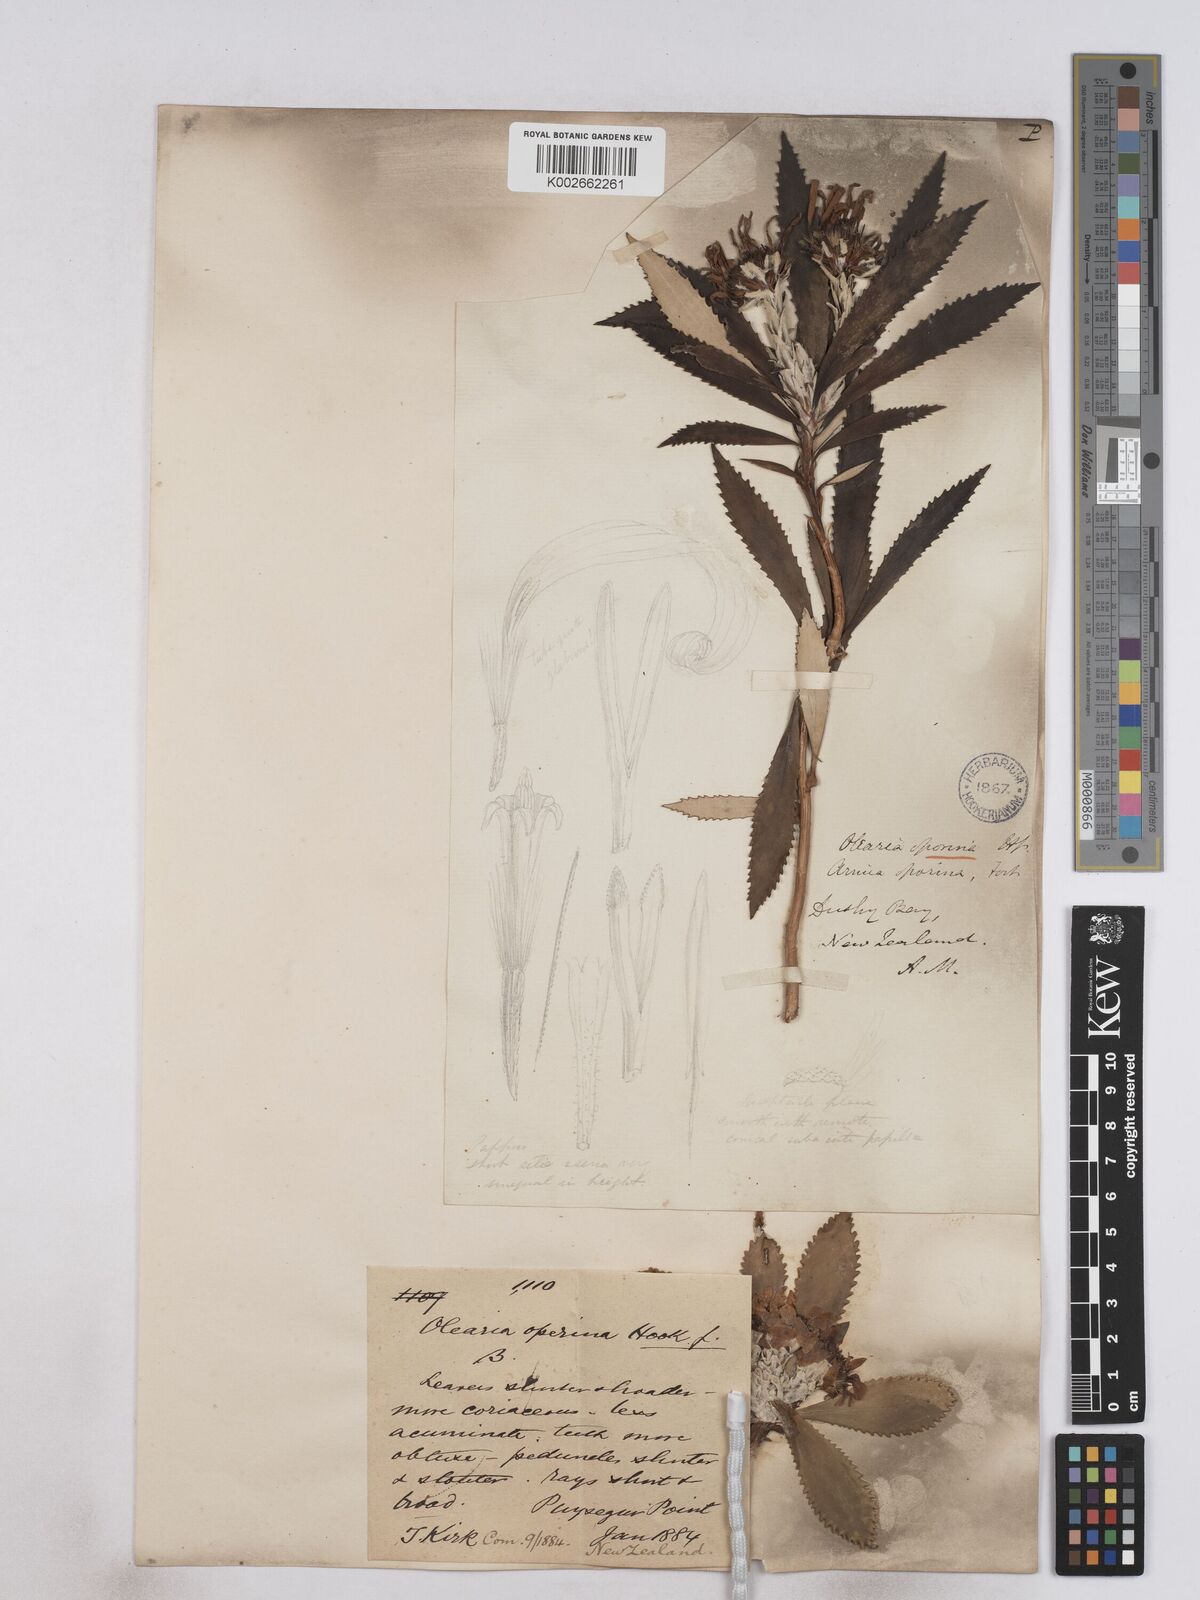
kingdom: Plantae
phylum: Tracheophyta
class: Magnoliopsida
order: Asterales
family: Asteraceae
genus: Macrolearia
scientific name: Macrolearia oporina
